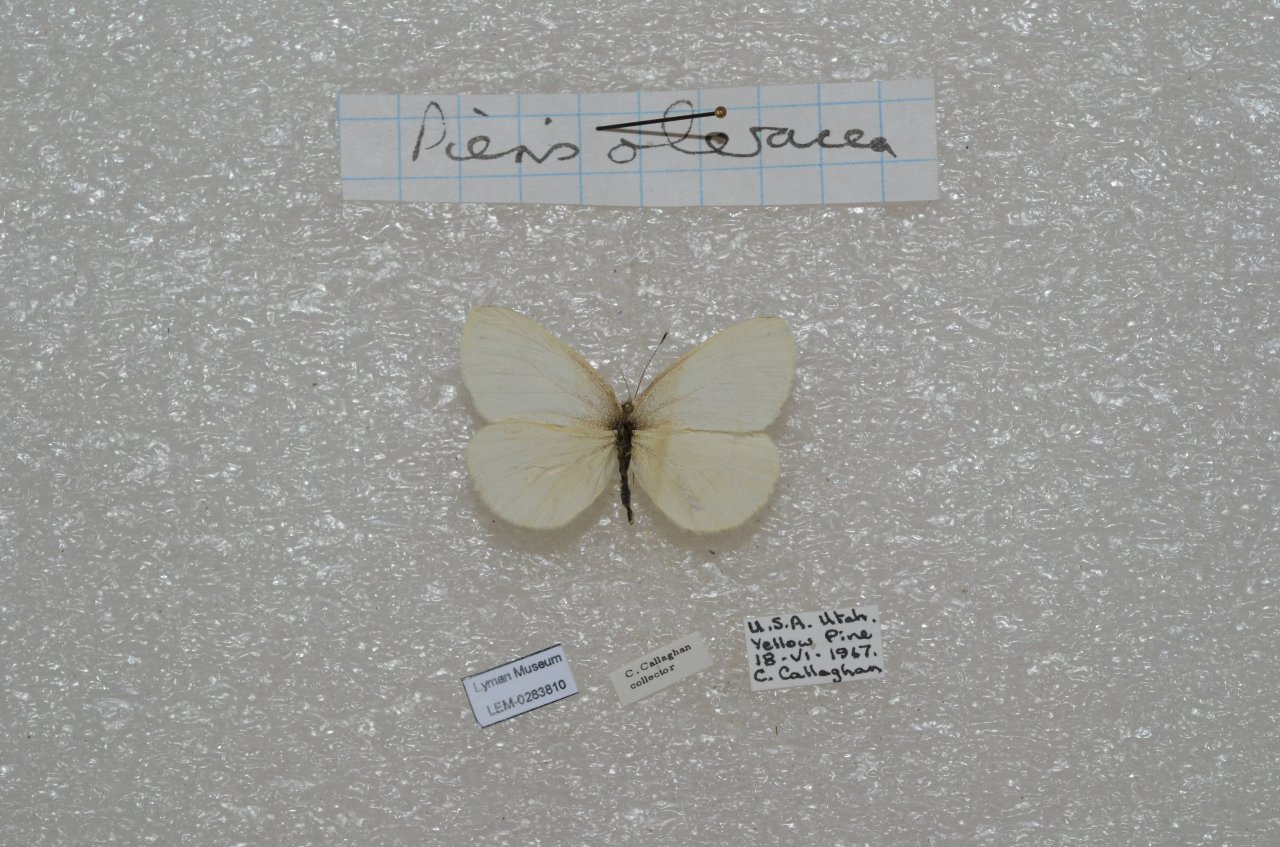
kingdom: Animalia
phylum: Arthropoda
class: Insecta
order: Lepidoptera
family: Pieridae
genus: Pieris
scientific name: Pieris
